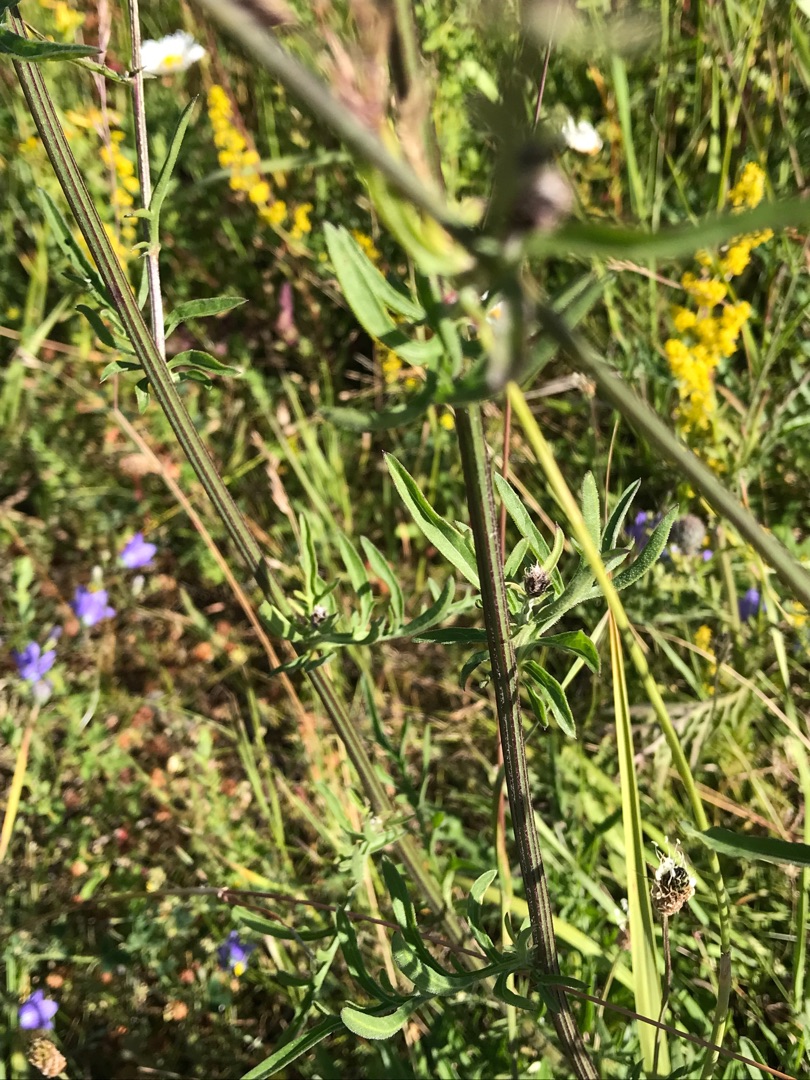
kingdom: Plantae
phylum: Tracheophyta
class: Magnoliopsida
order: Asterales
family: Asteraceae
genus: Centaurea
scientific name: Centaurea scabiosa
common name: Stor knopurt
